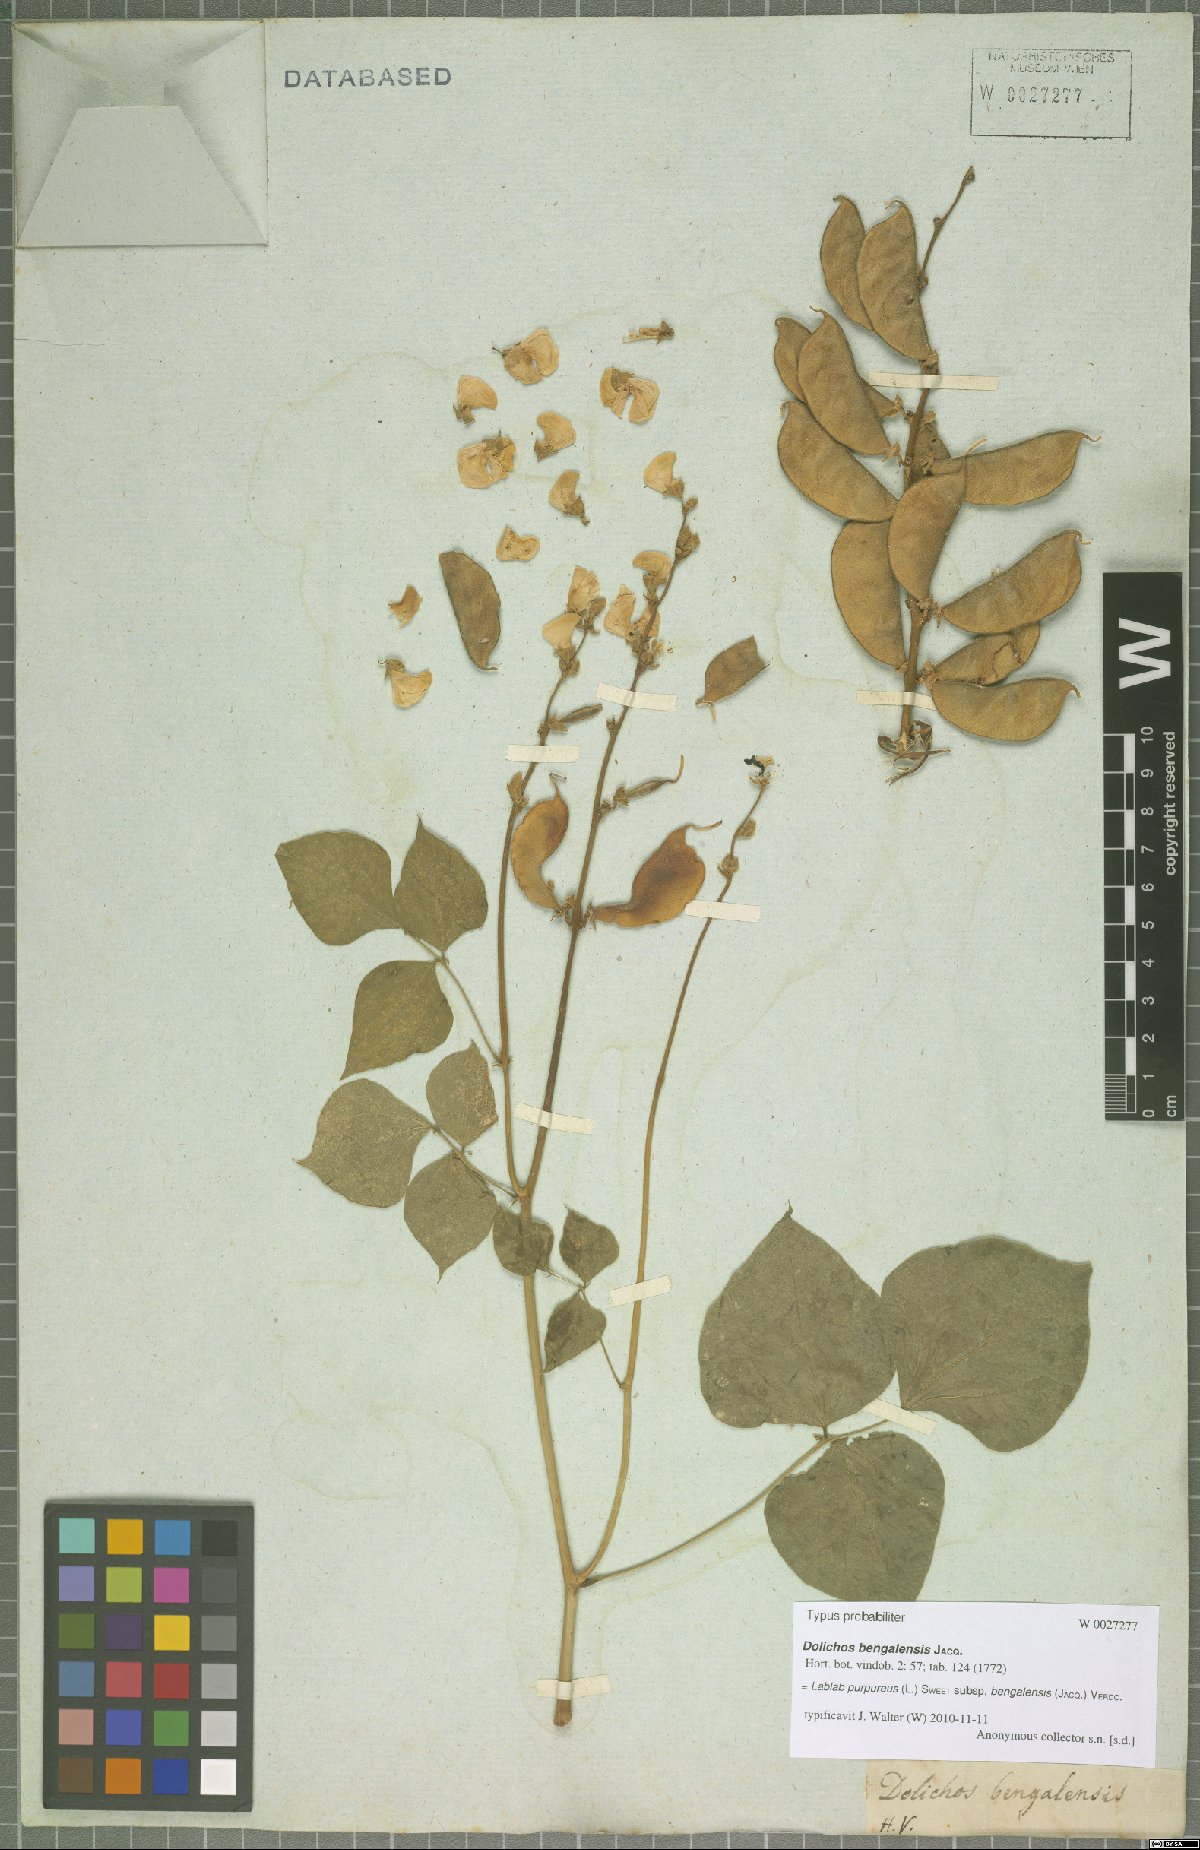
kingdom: Plantae
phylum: Tracheophyta
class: Magnoliopsida
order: Fabales
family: Fabaceae
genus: Lablab
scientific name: Lablab purpureus
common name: Lablab-bean
